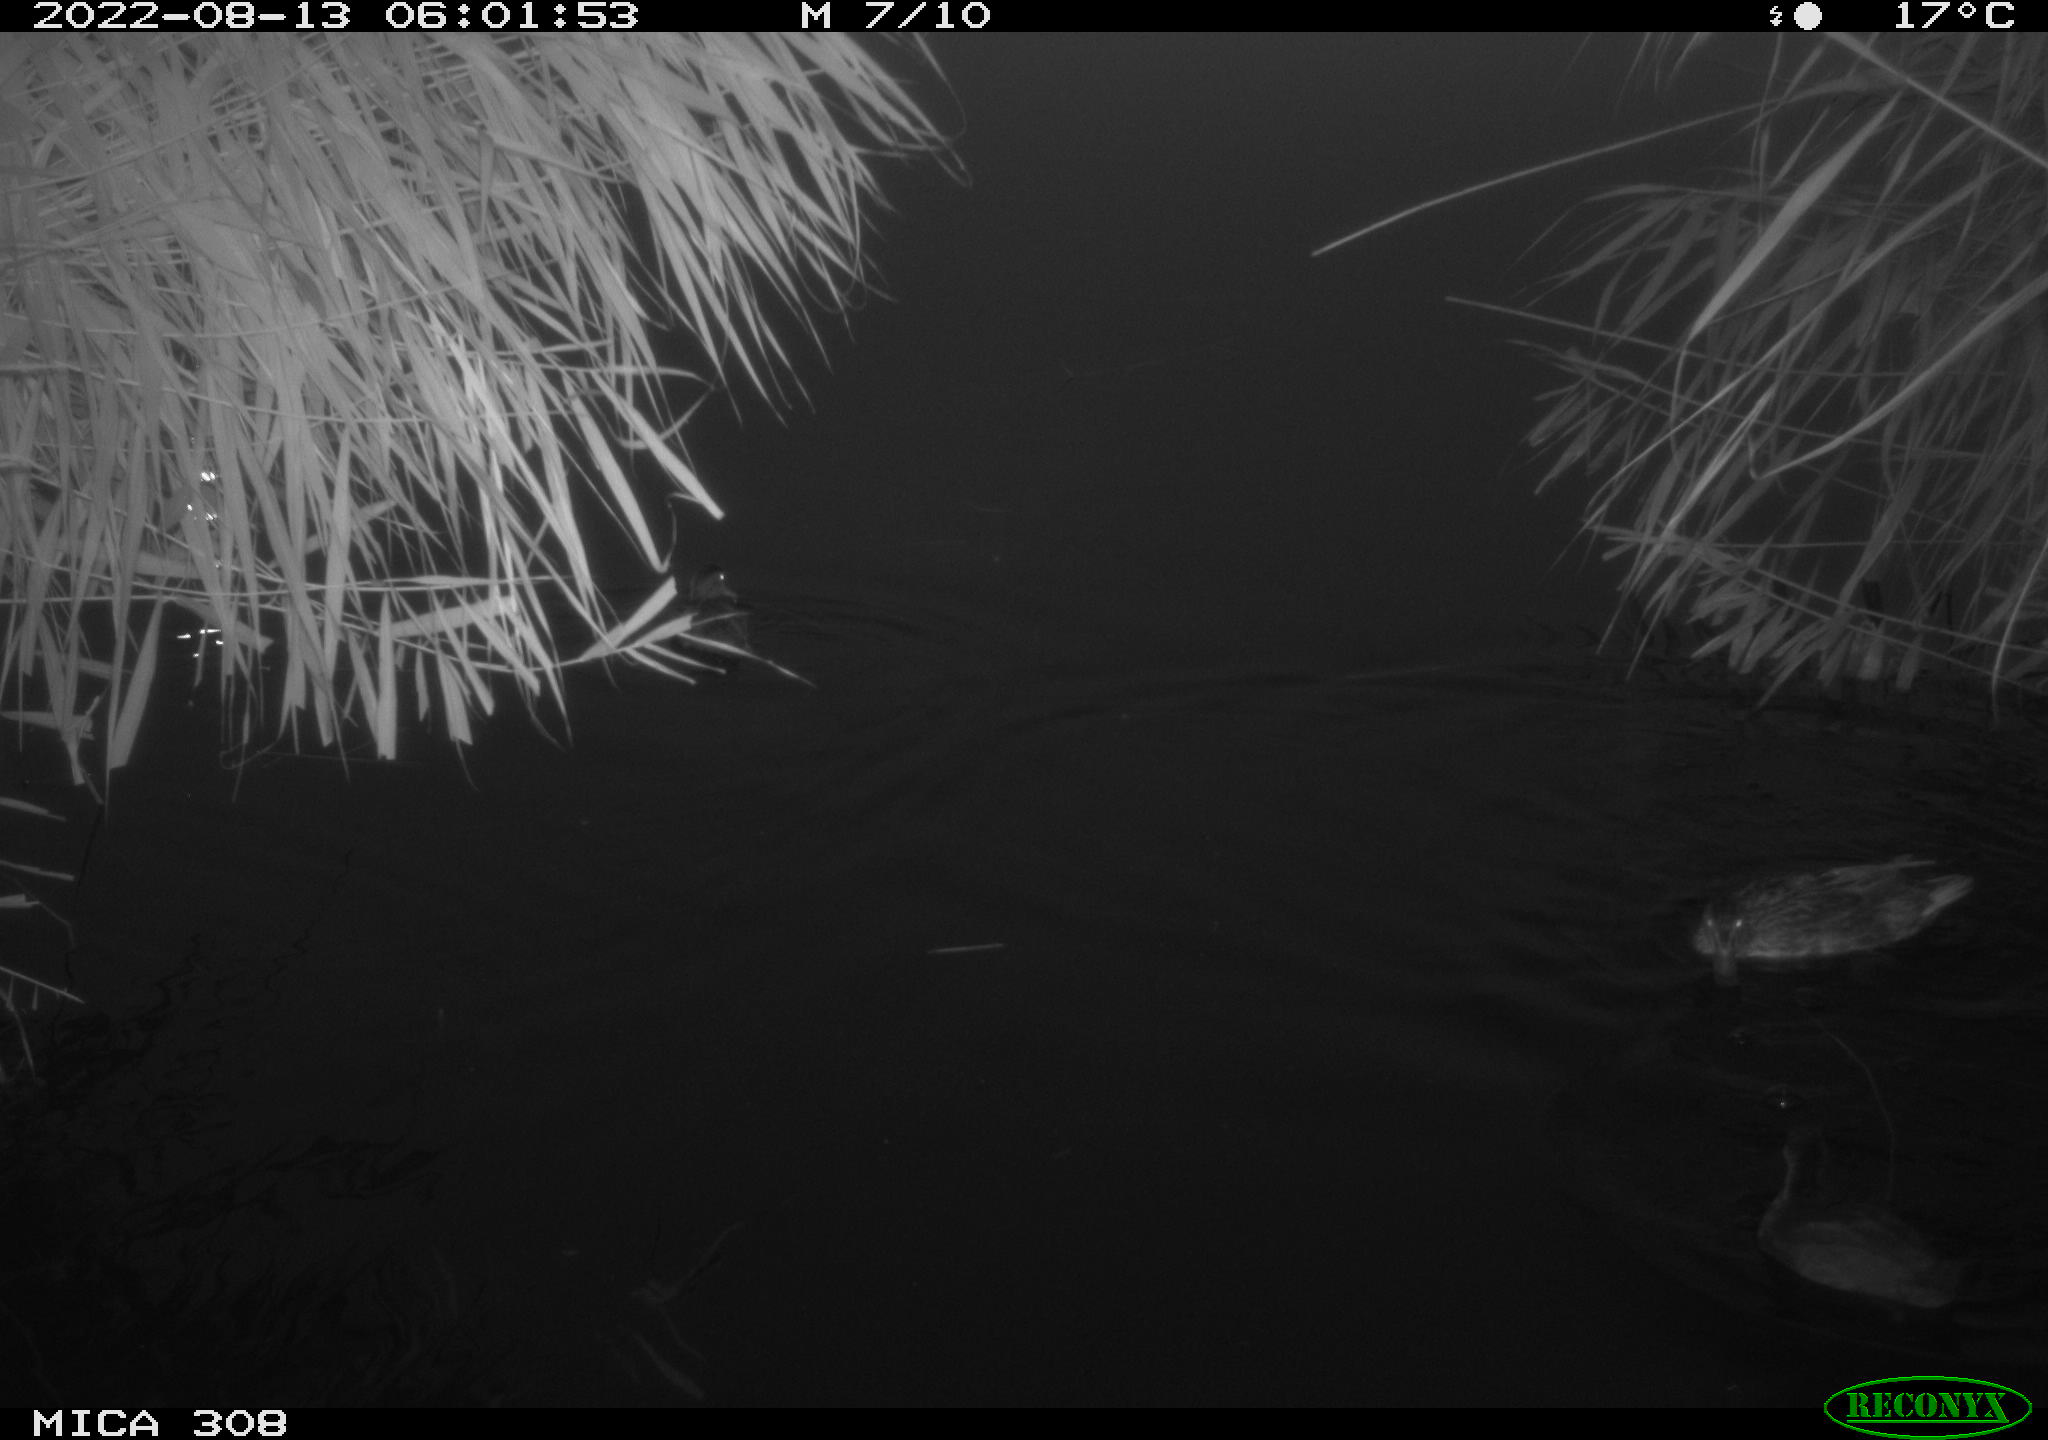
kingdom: Animalia
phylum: Chordata
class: Aves
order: Gruiformes
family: Rallidae
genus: Gallinula
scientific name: Gallinula chloropus
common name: Common moorhen
